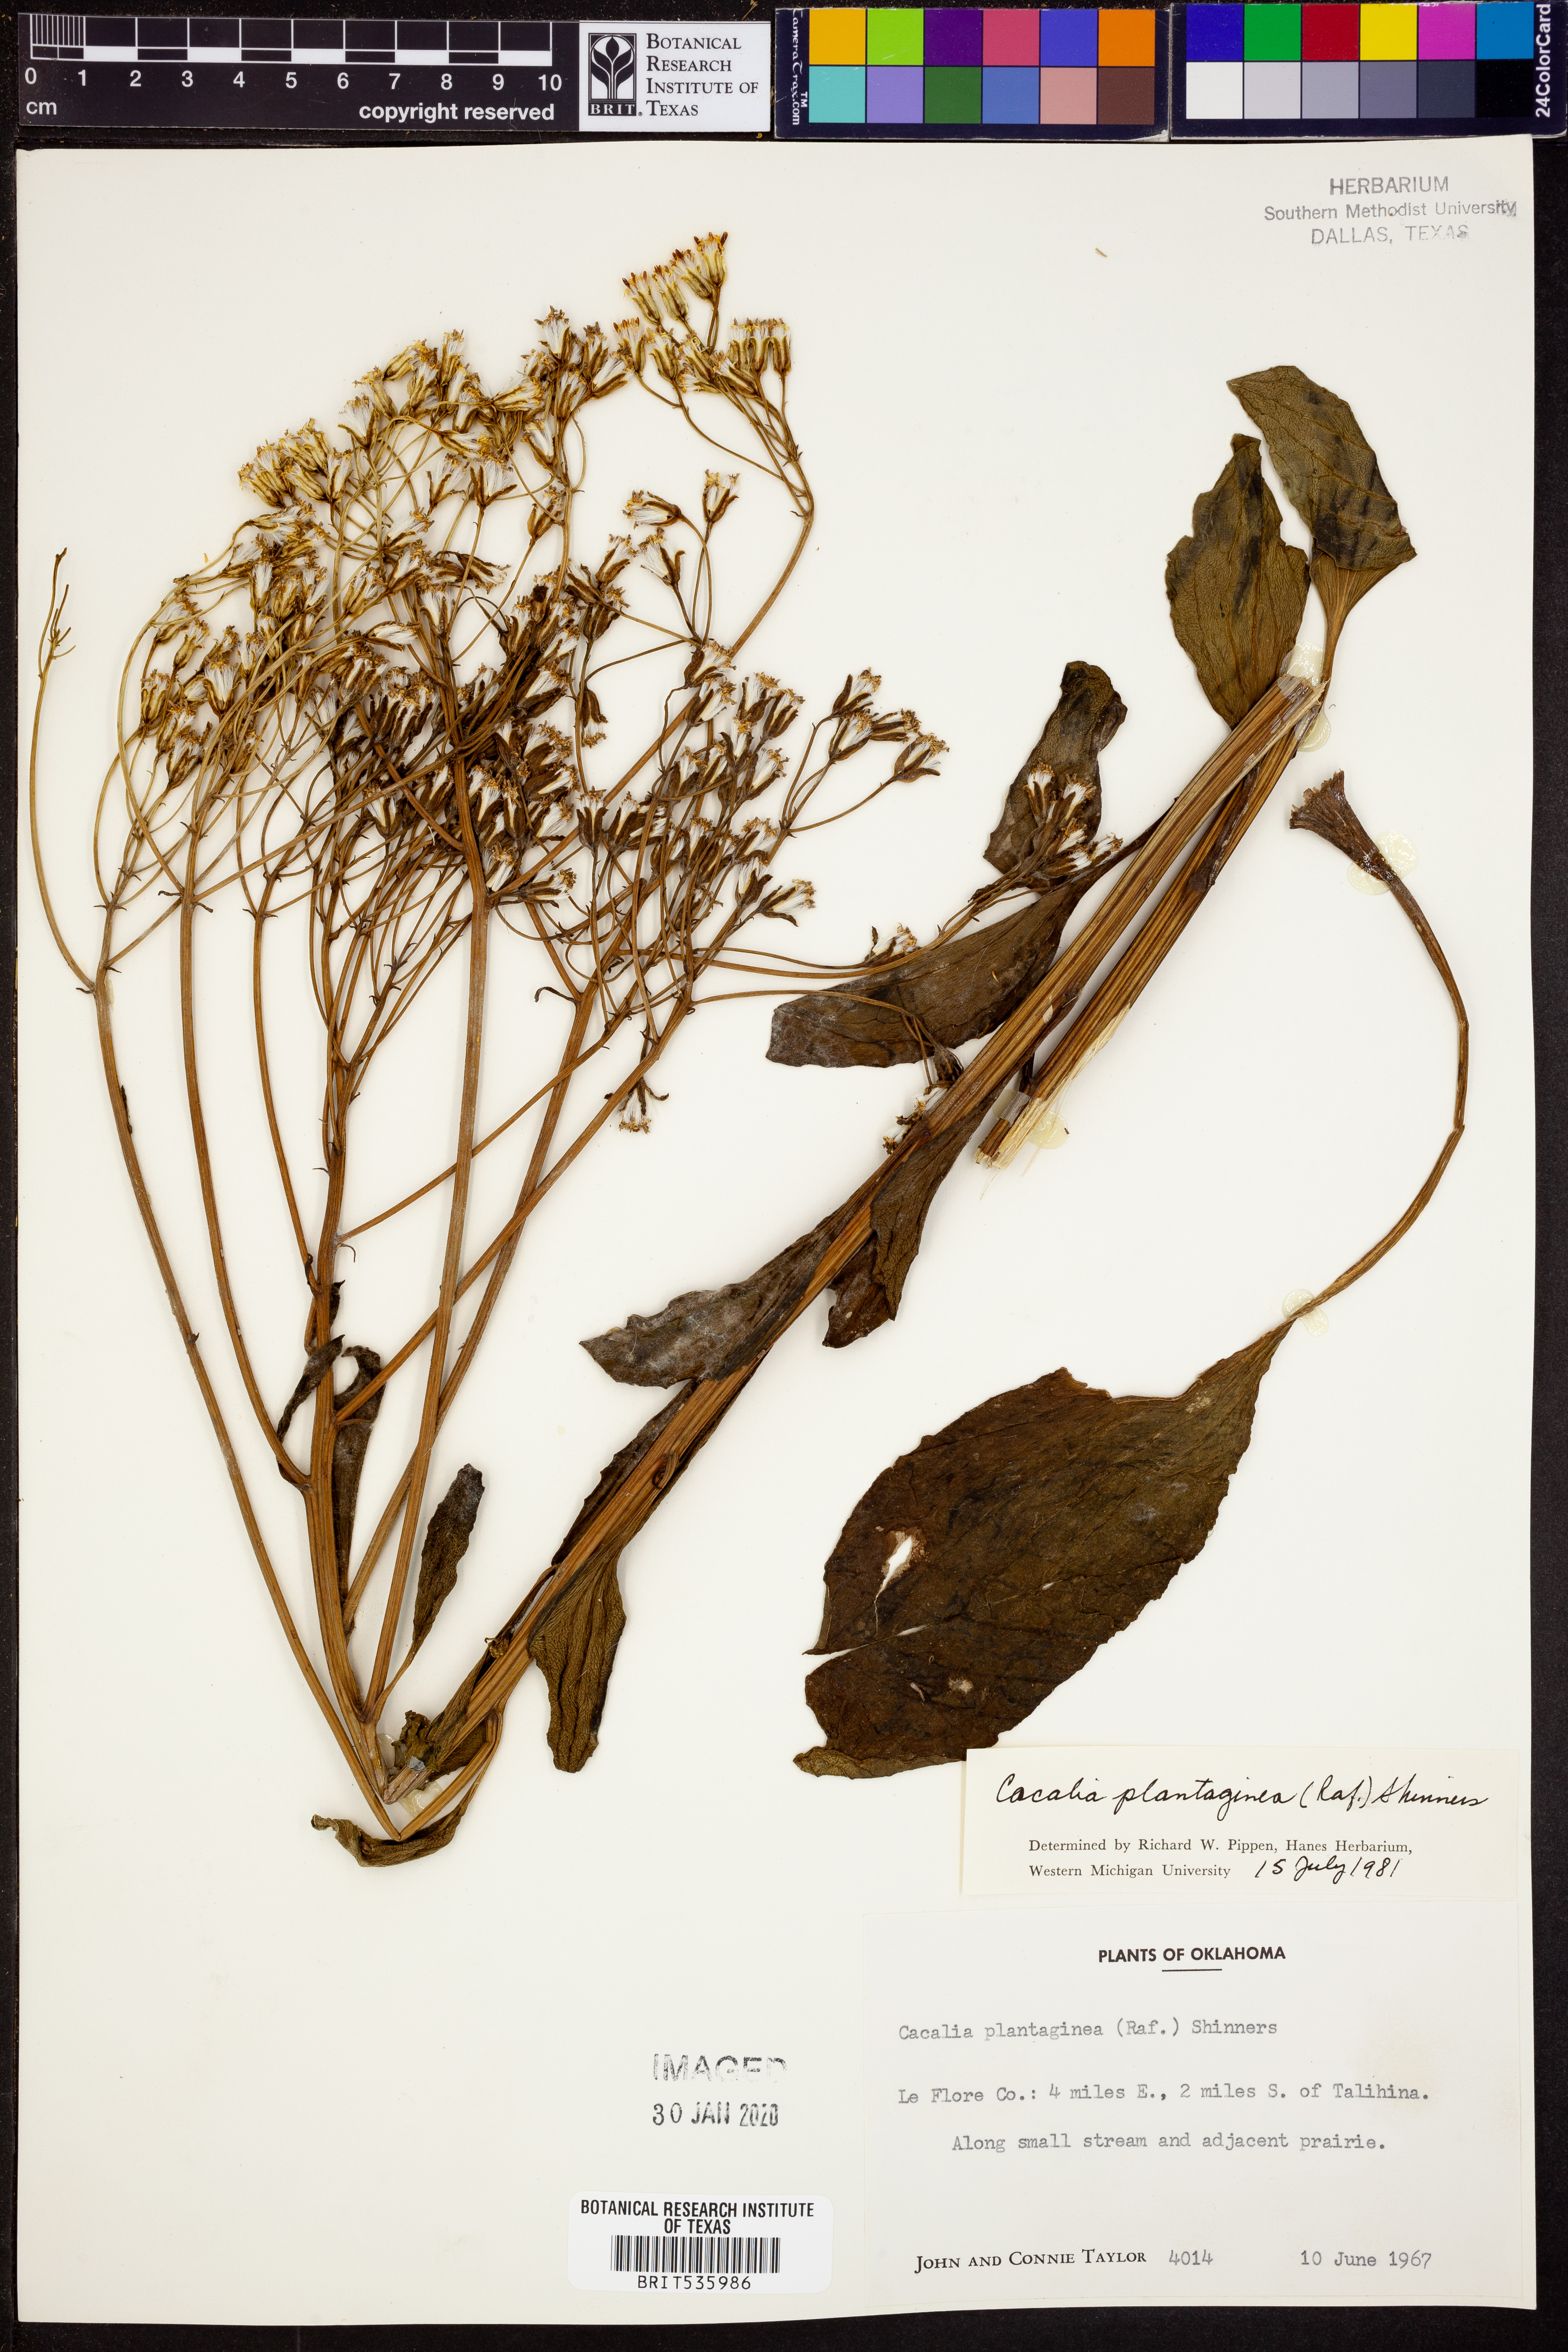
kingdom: Plantae
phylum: Tracheophyta
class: Magnoliopsida
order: Asterales
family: Asteraceae
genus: Arnoglossum
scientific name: Arnoglossum plantagineum
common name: Groove-stemmed indian-plantain
